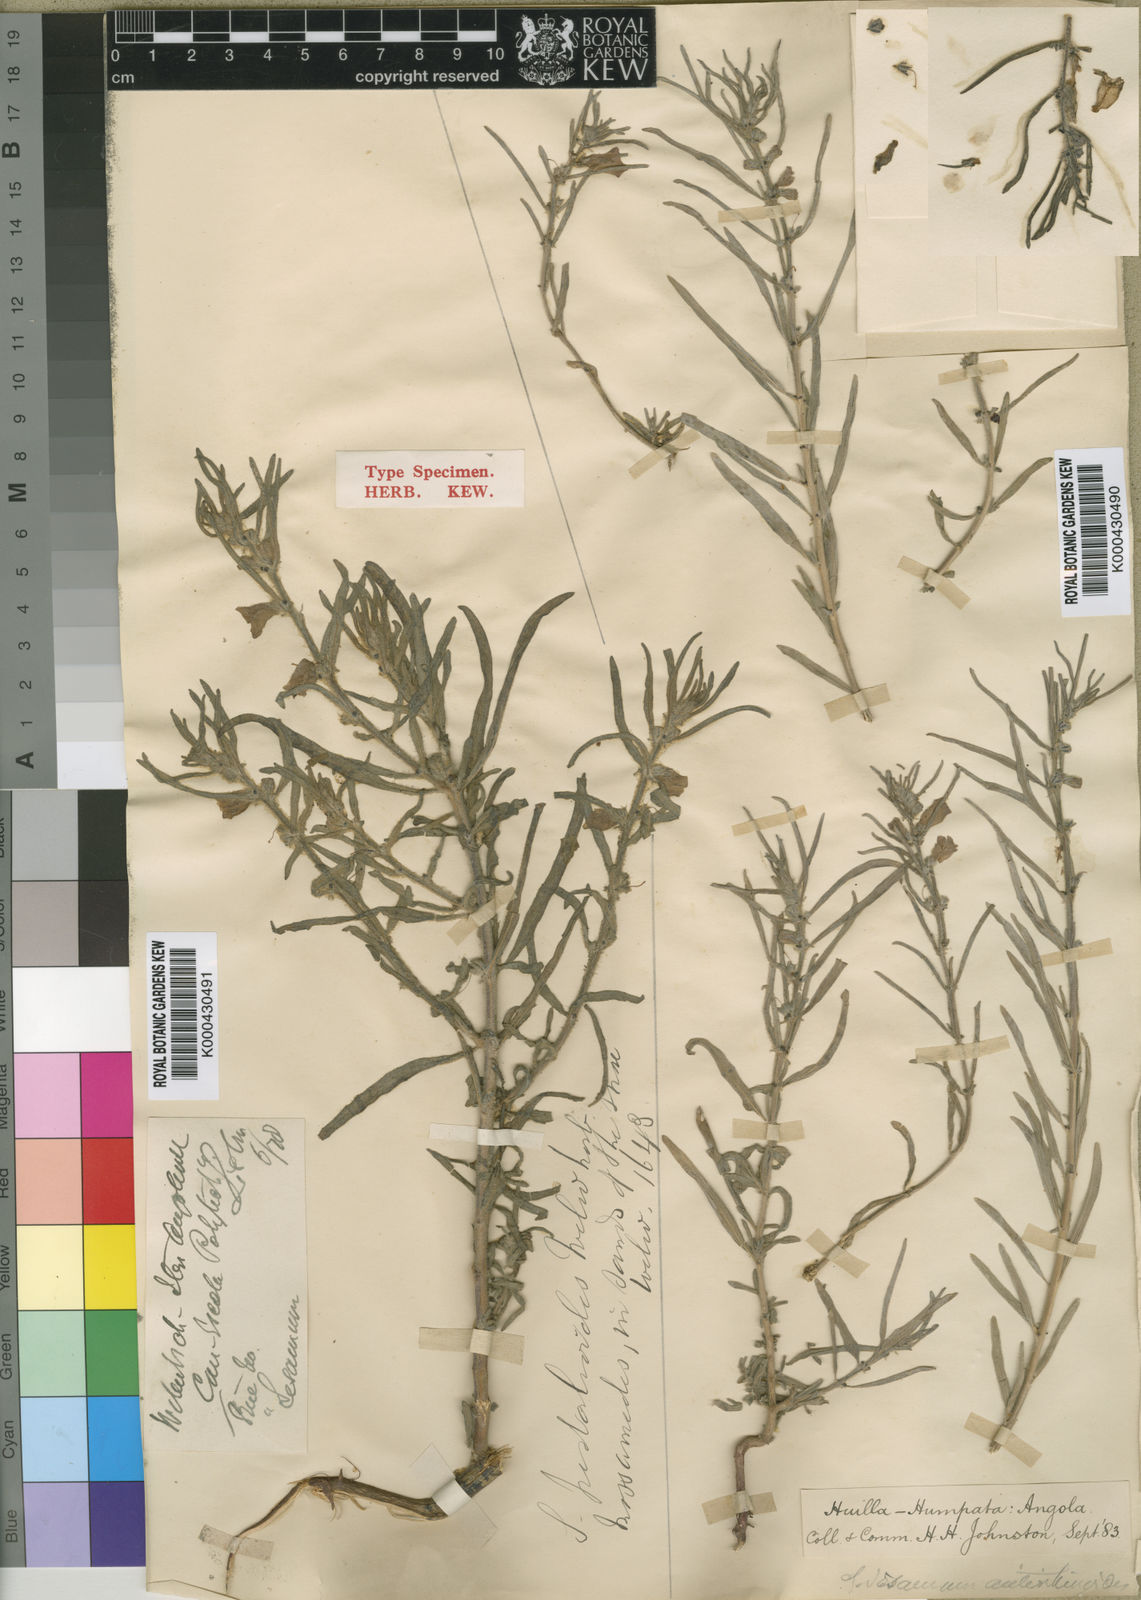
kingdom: Plantae
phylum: Tracheophyta
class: Magnoliopsida
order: Lamiales
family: Pedaliaceae
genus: Sesamum
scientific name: Sesamum pedalioides
